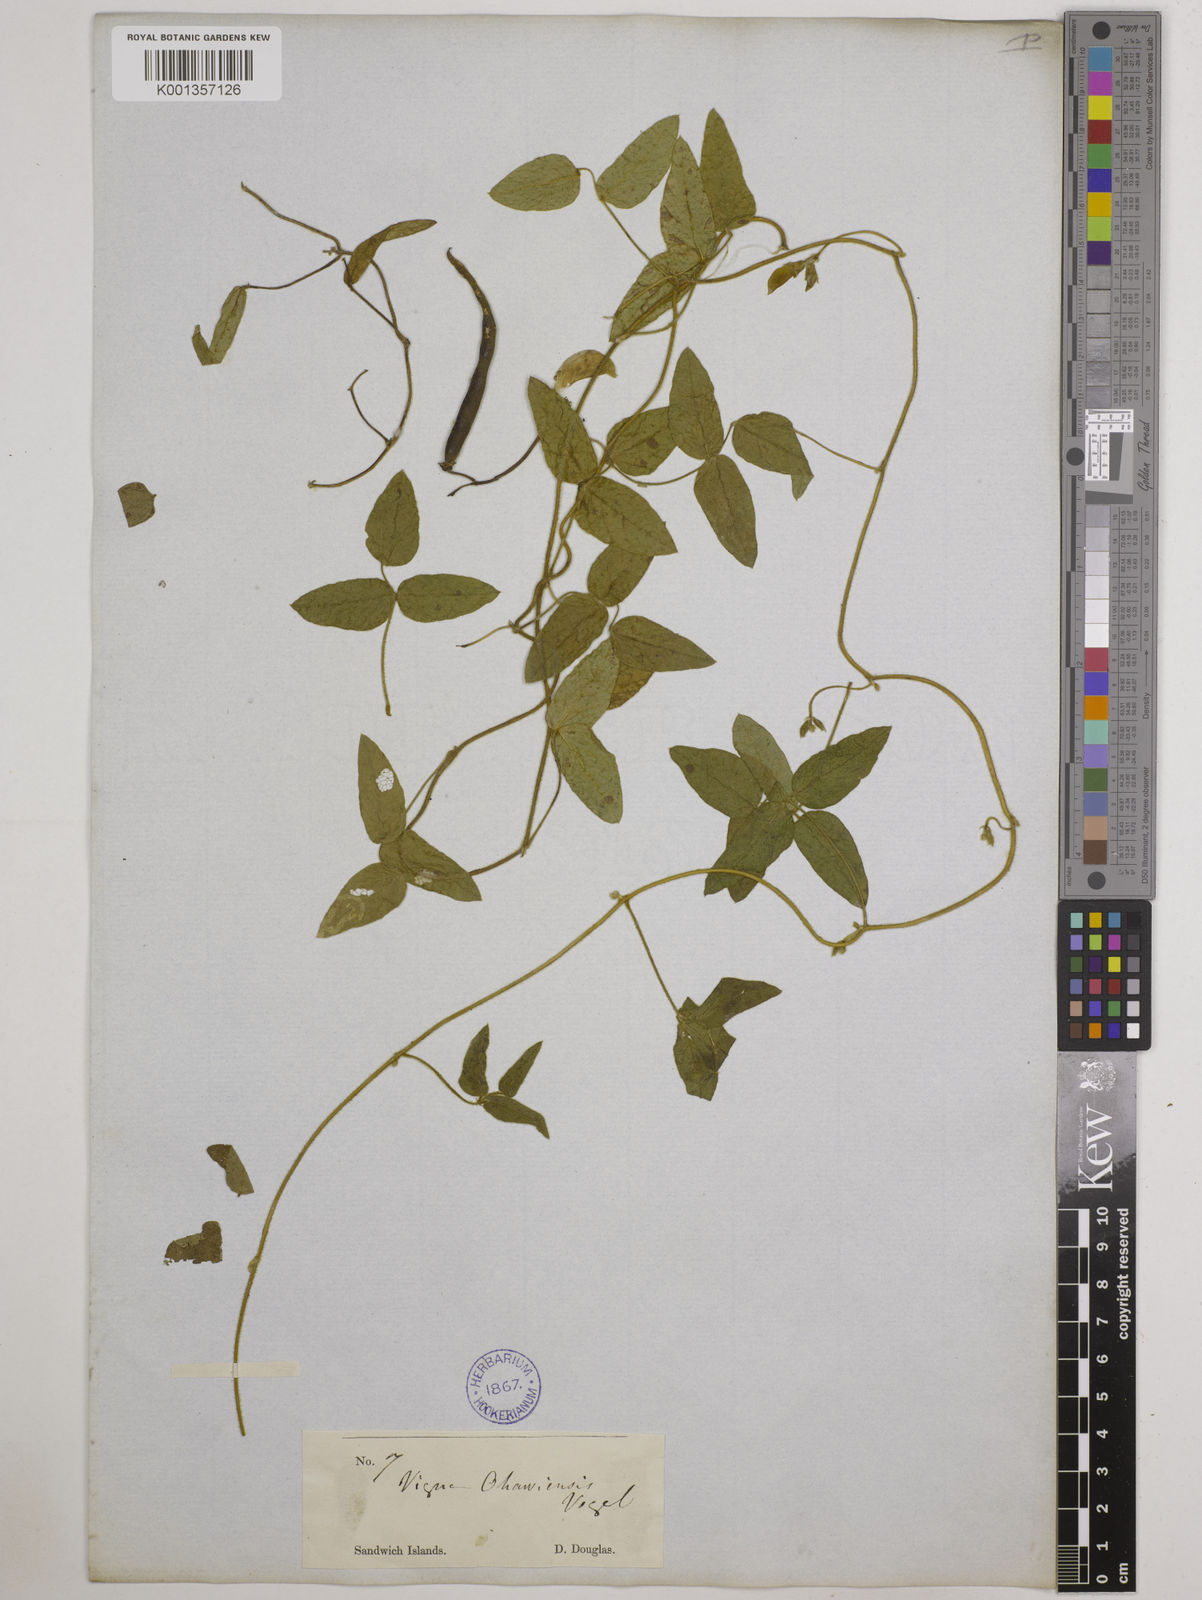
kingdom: Plantae
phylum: Tracheophyta
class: Magnoliopsida
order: Fabales
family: Fabaceae
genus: Vigna
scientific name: Vigna
